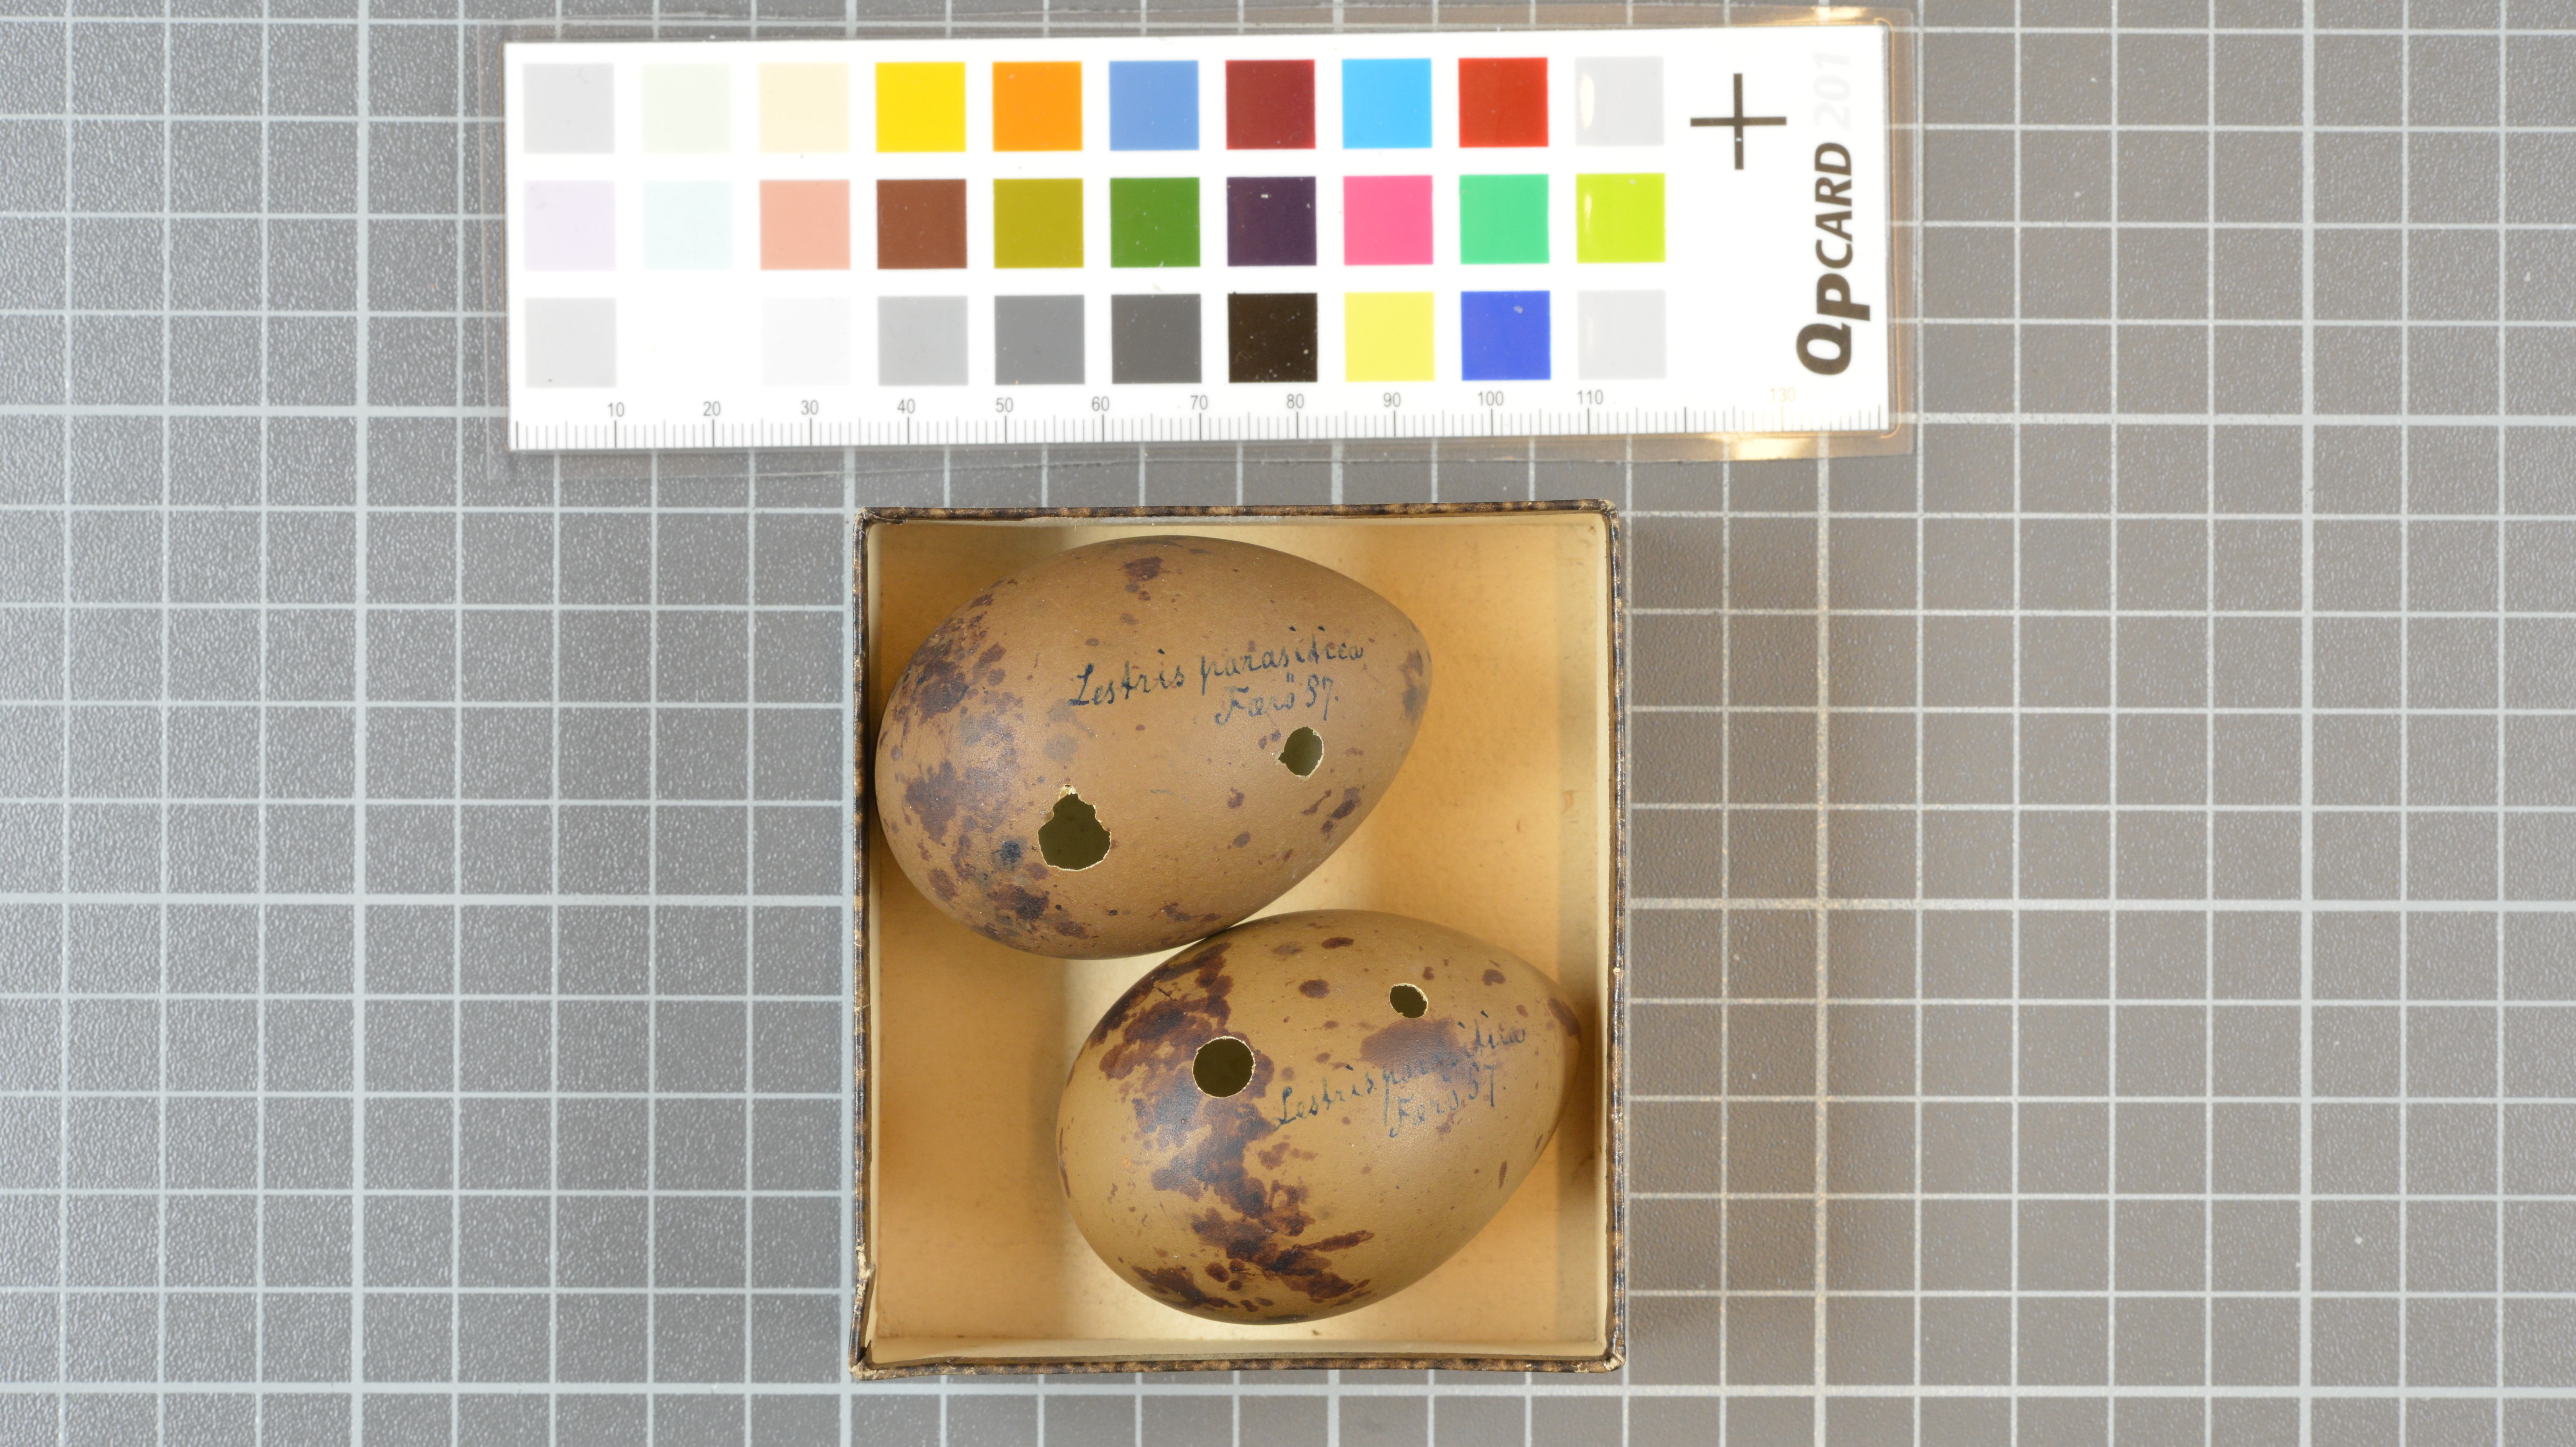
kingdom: Animalia
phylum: Chordata
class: Aves
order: Charadriiformes
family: Stercorariidae
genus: Stercorarius
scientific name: Stercorarius parasiticus
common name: Parasitic jaeger
